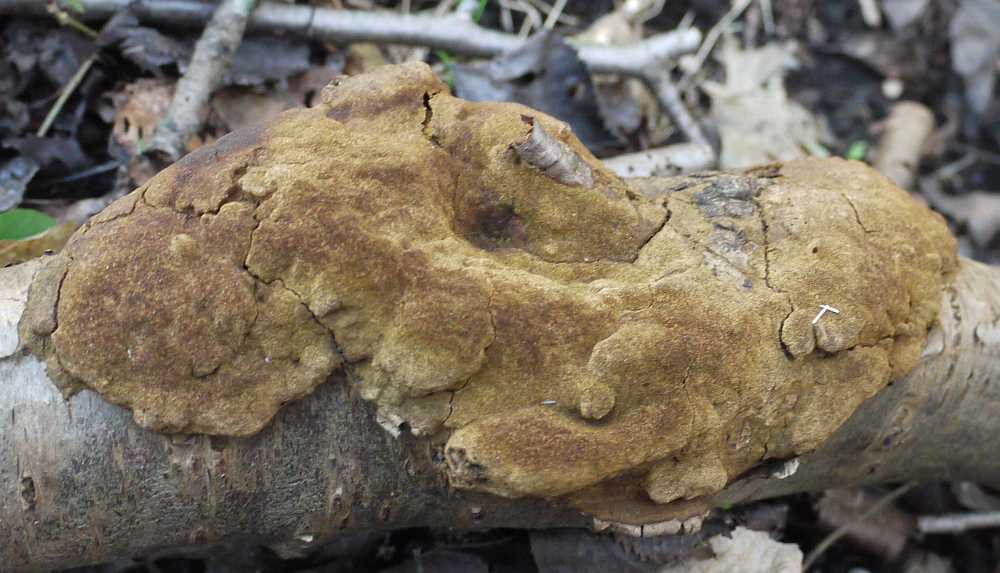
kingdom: Fungi
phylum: Basidiomycota
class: Agaricomycetes
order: Hymenochaetales
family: Hymenochaetaceae
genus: Fuscoporia
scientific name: Fuscoporia ferrea
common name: skorpe-ildporesvamp
